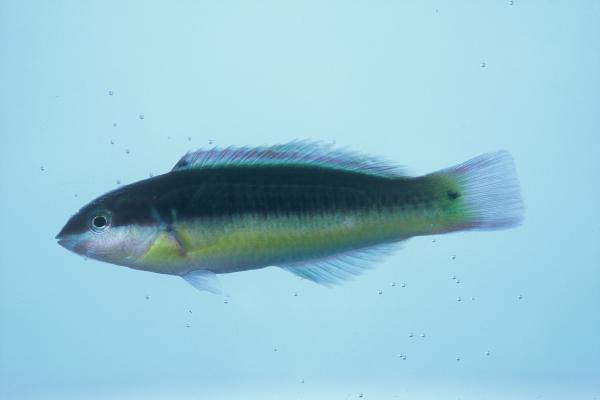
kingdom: Animalia
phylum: Chordata
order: Perciformes
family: Labridae
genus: Thalassoma
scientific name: Thalassoma genivittatum
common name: Red-cheek wrasse
